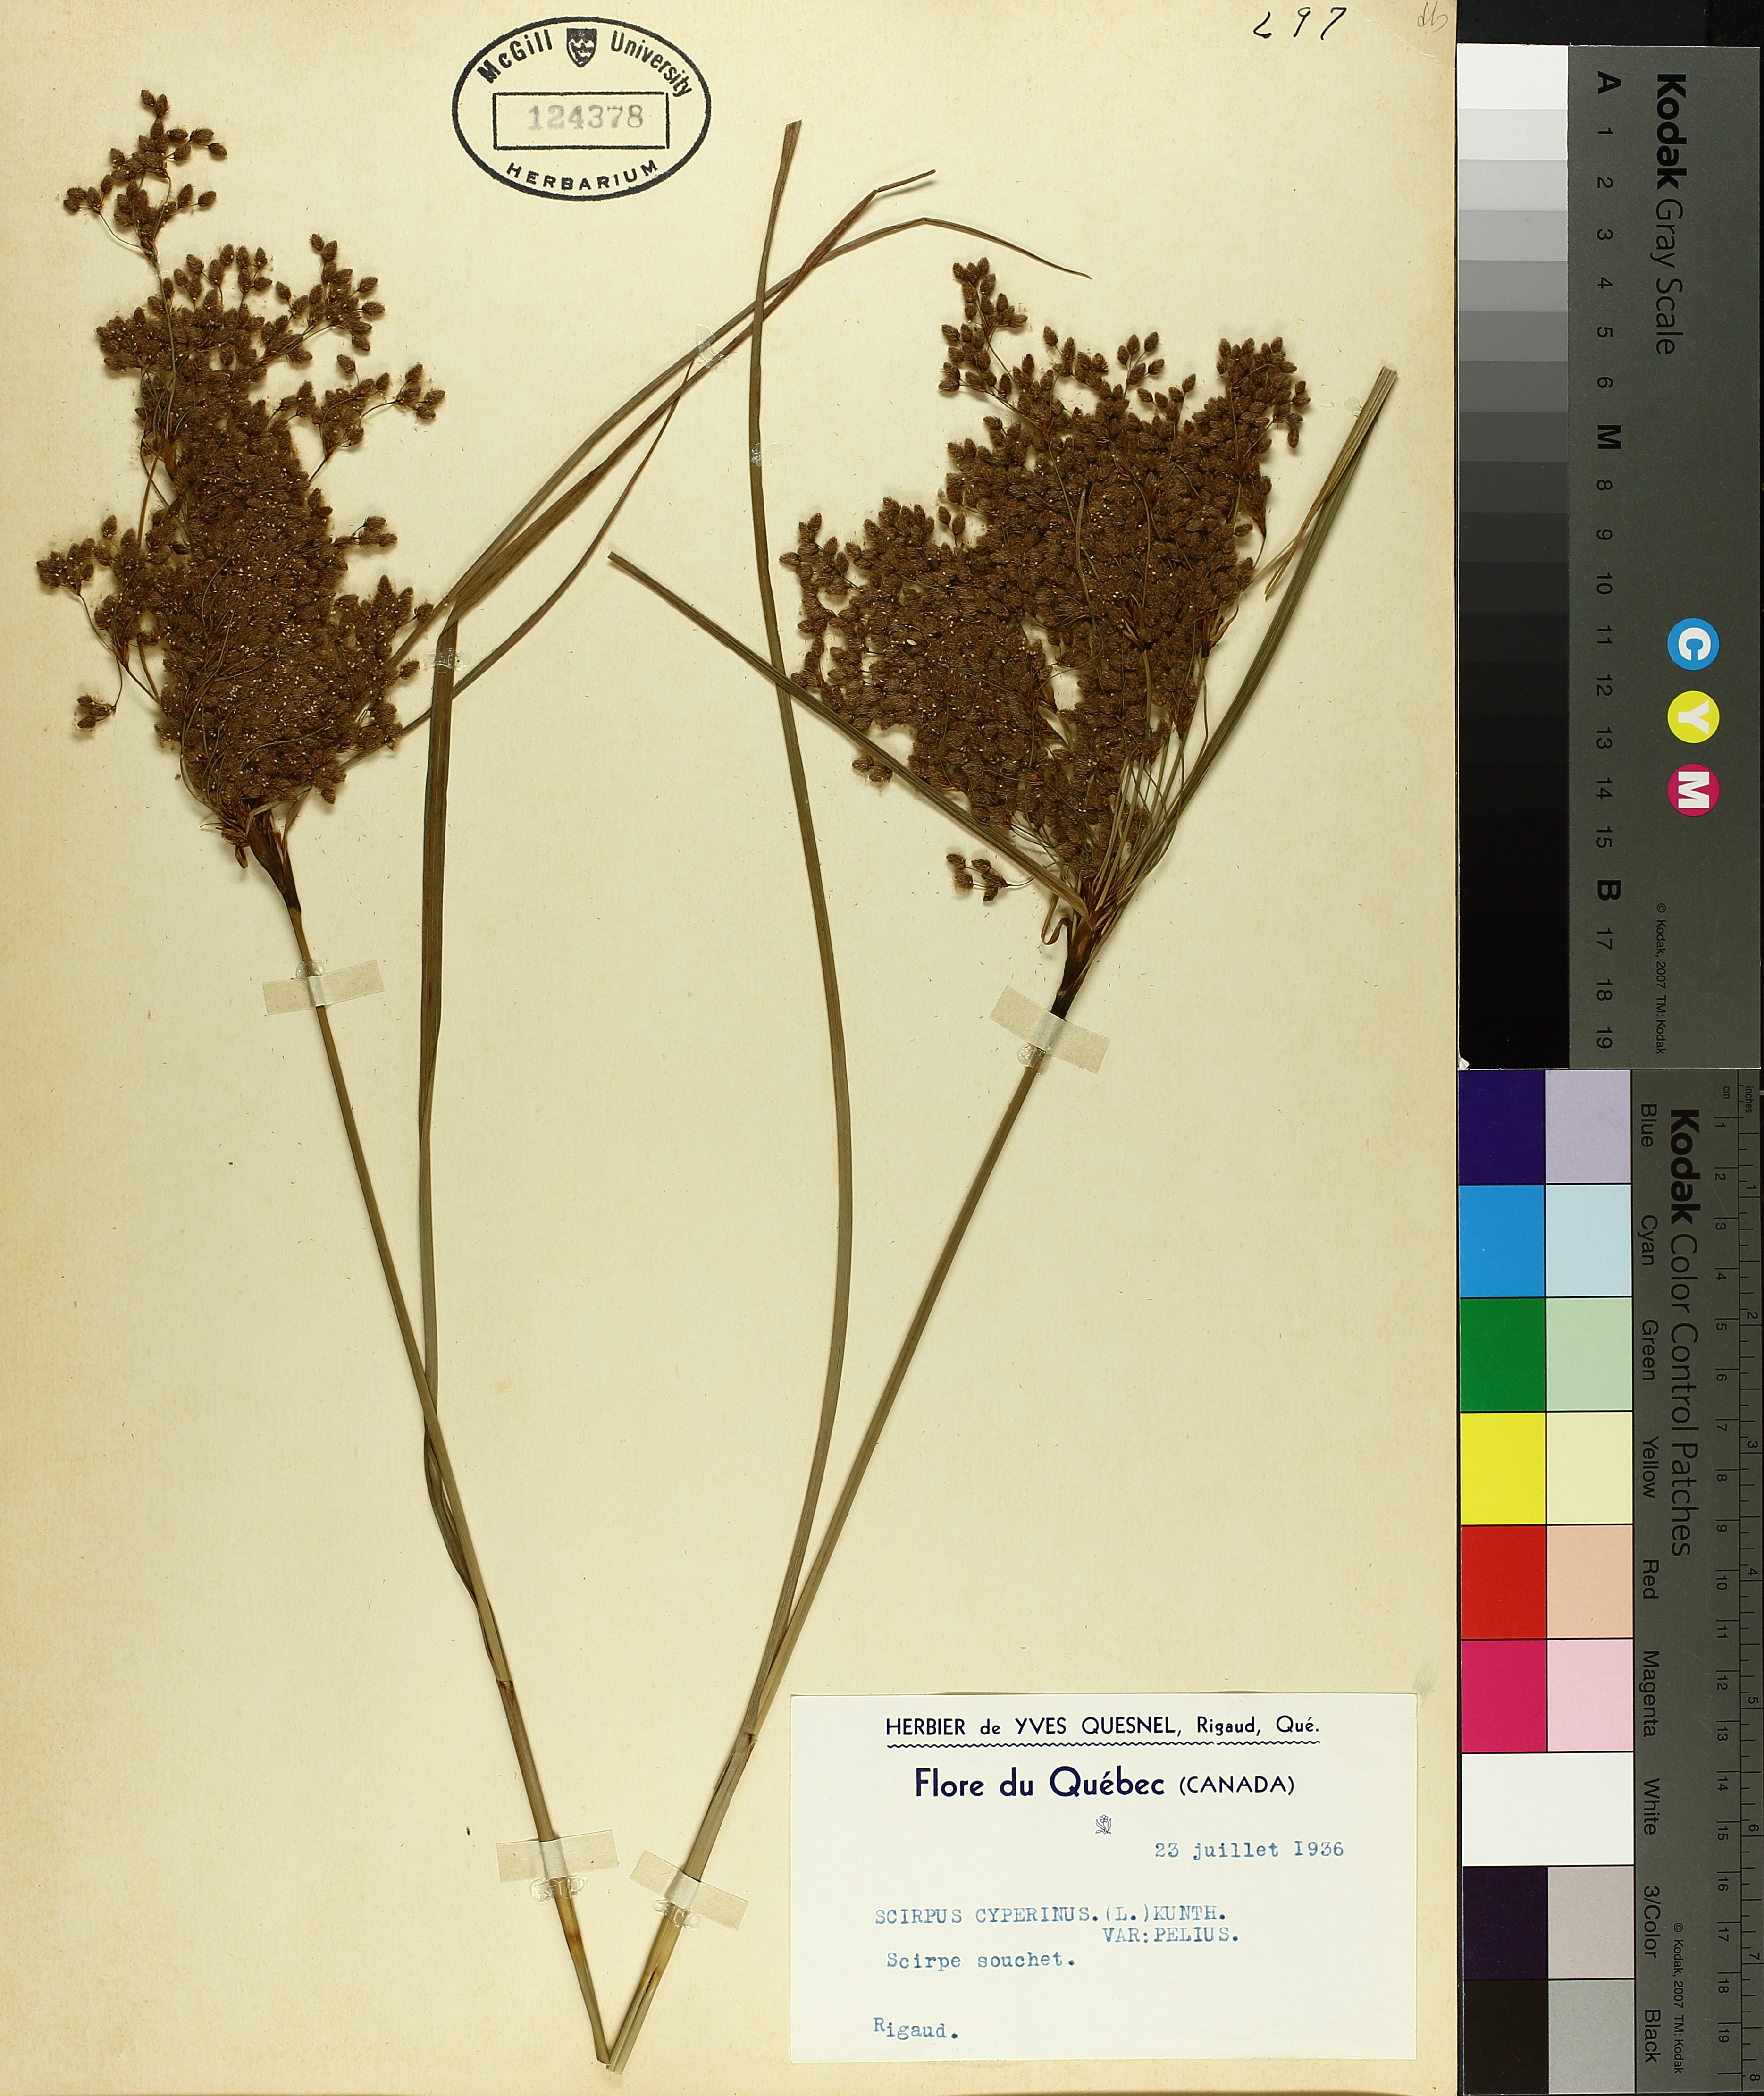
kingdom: Plantae
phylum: Tracheophyta
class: Liliopsida
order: Poales
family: Cyperaceae
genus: Scirpus
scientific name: Scirpus cyperinus
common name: Black-sheathed bulrush
